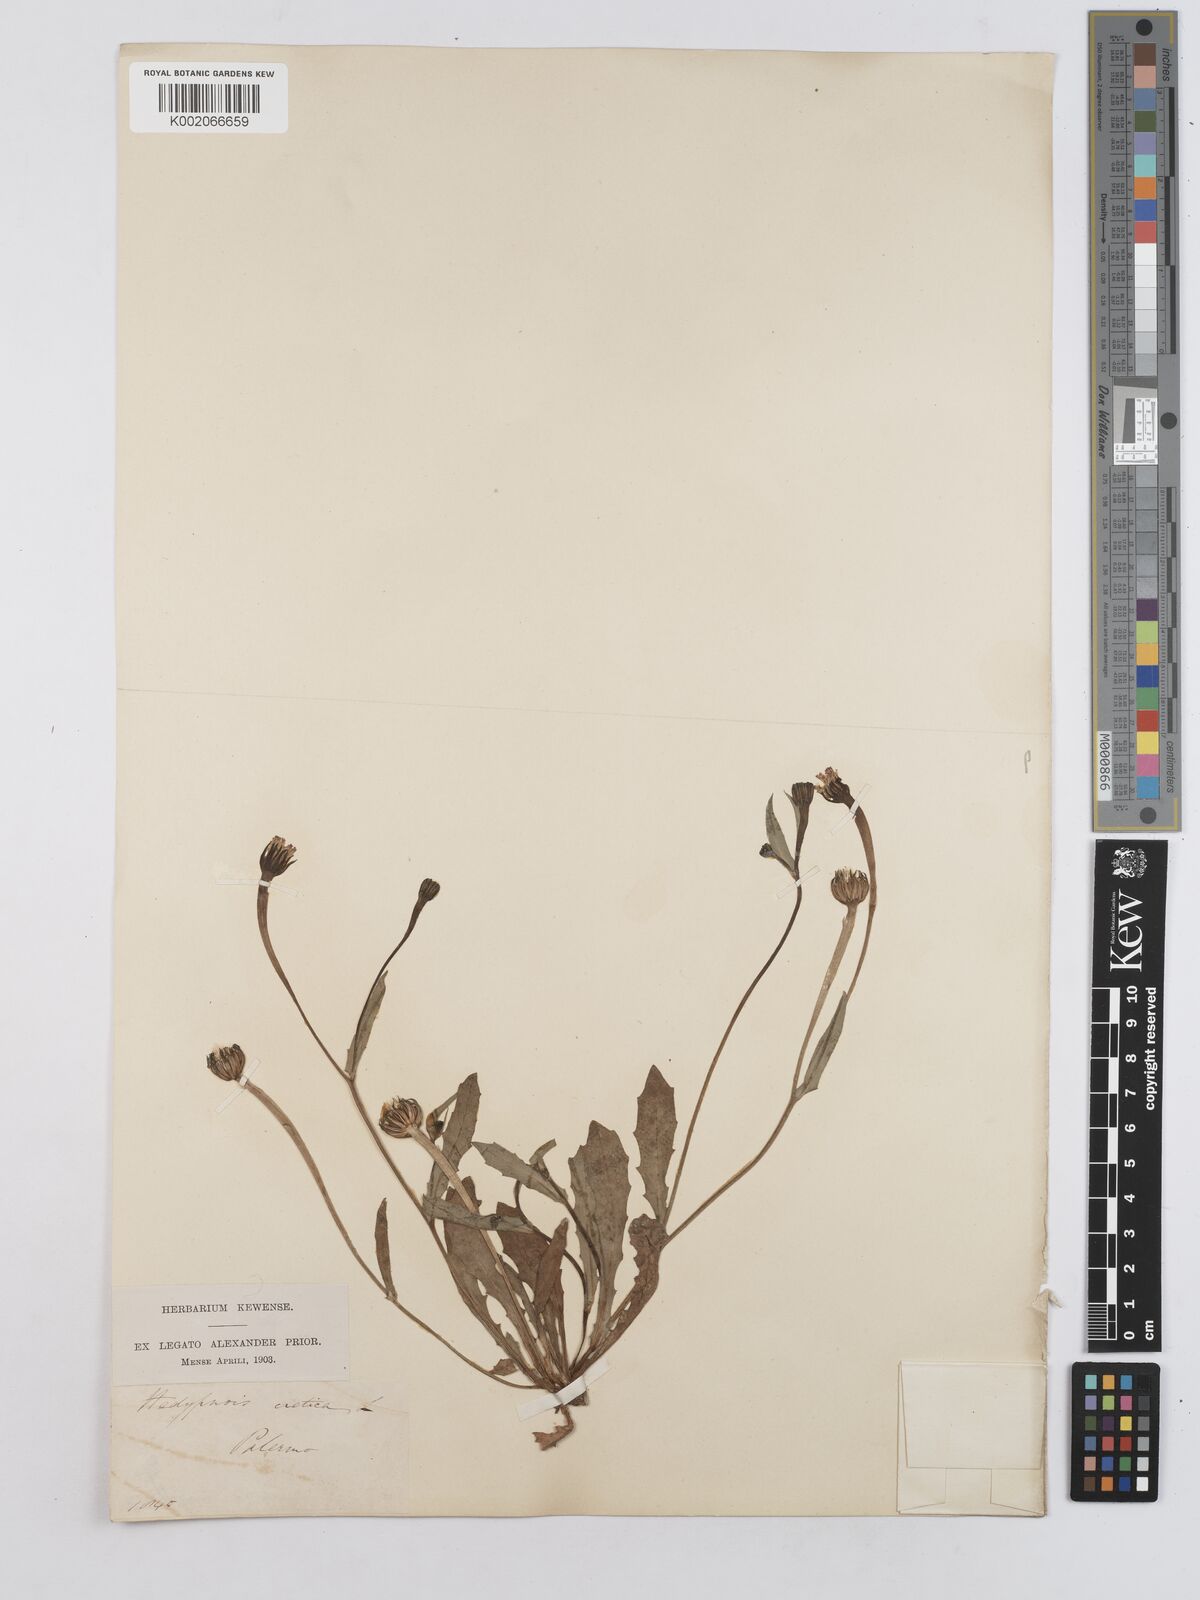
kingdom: Plantae
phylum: Tracheophyta
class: Magnoliopsida
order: Asterales
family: Asteraceae
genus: Hedypnois
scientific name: Hedypnois rhagadioloides
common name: Cretan weed
